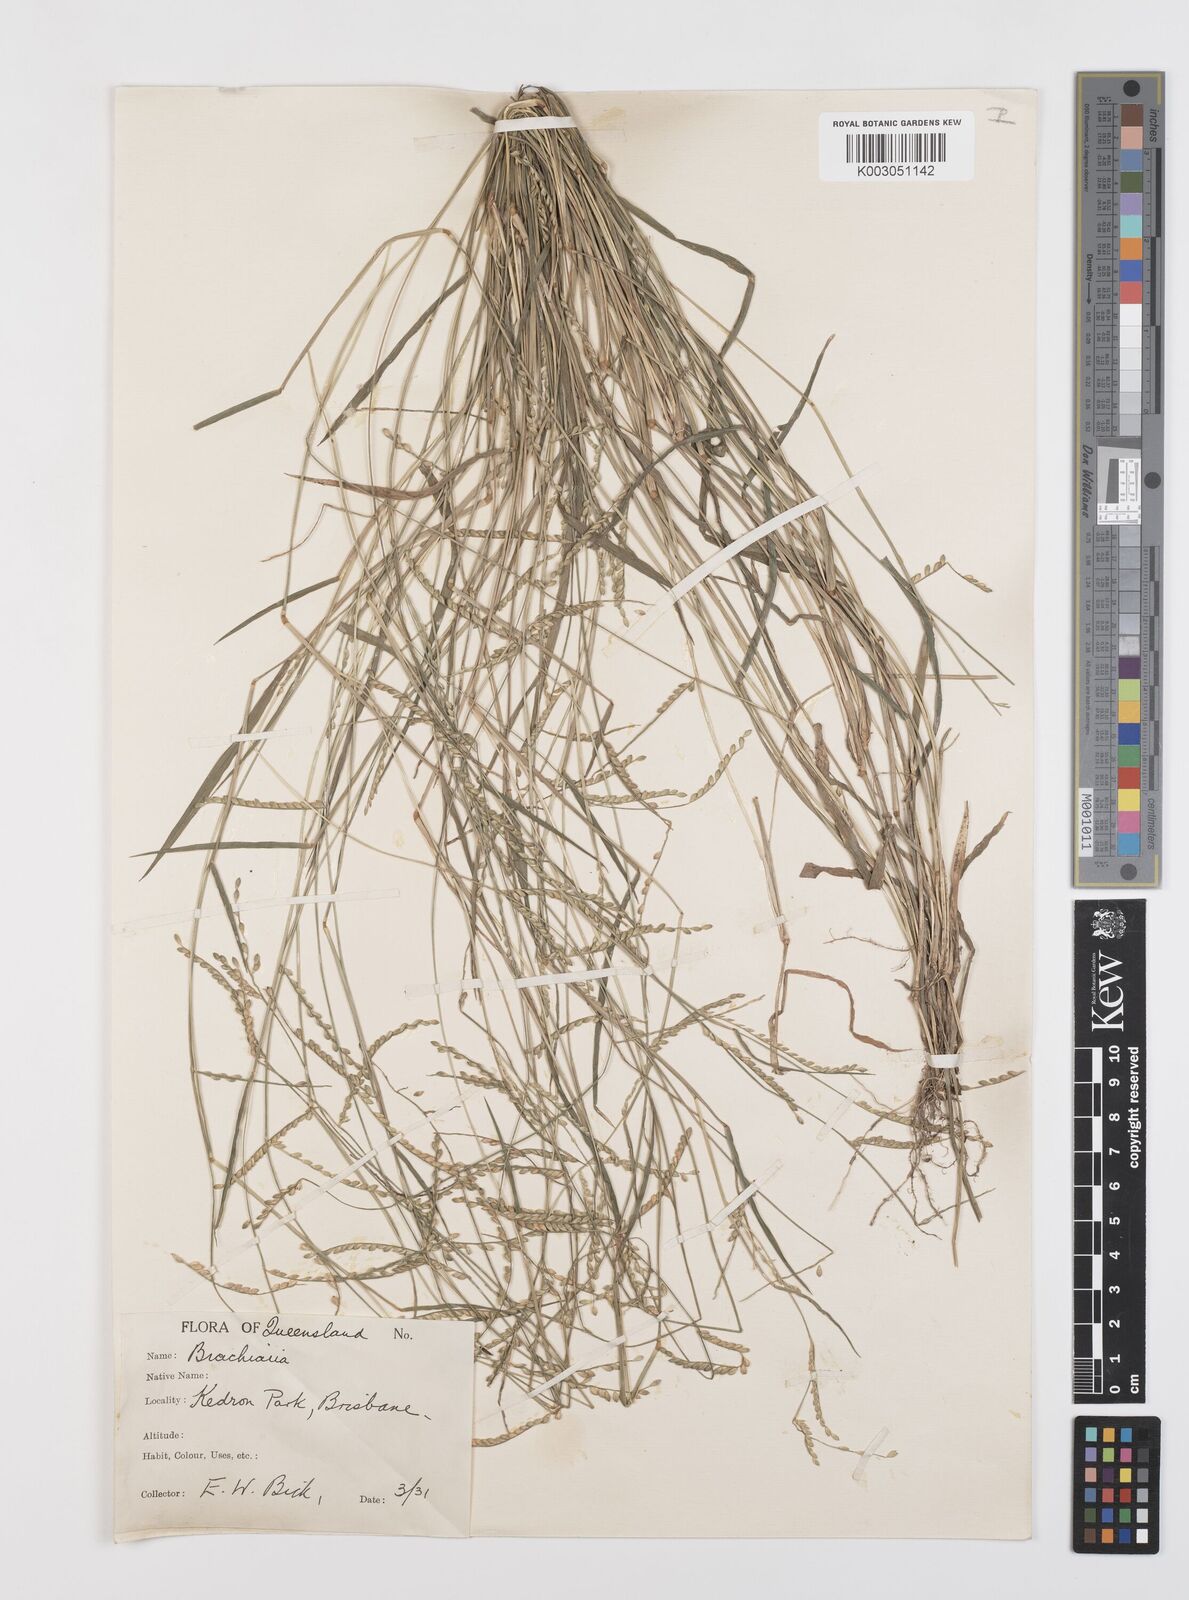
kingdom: Plantae
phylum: Tracheophyta
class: Liliopsida
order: Poales
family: Poaceae
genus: Urochloa
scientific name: Urochloa whiteana
